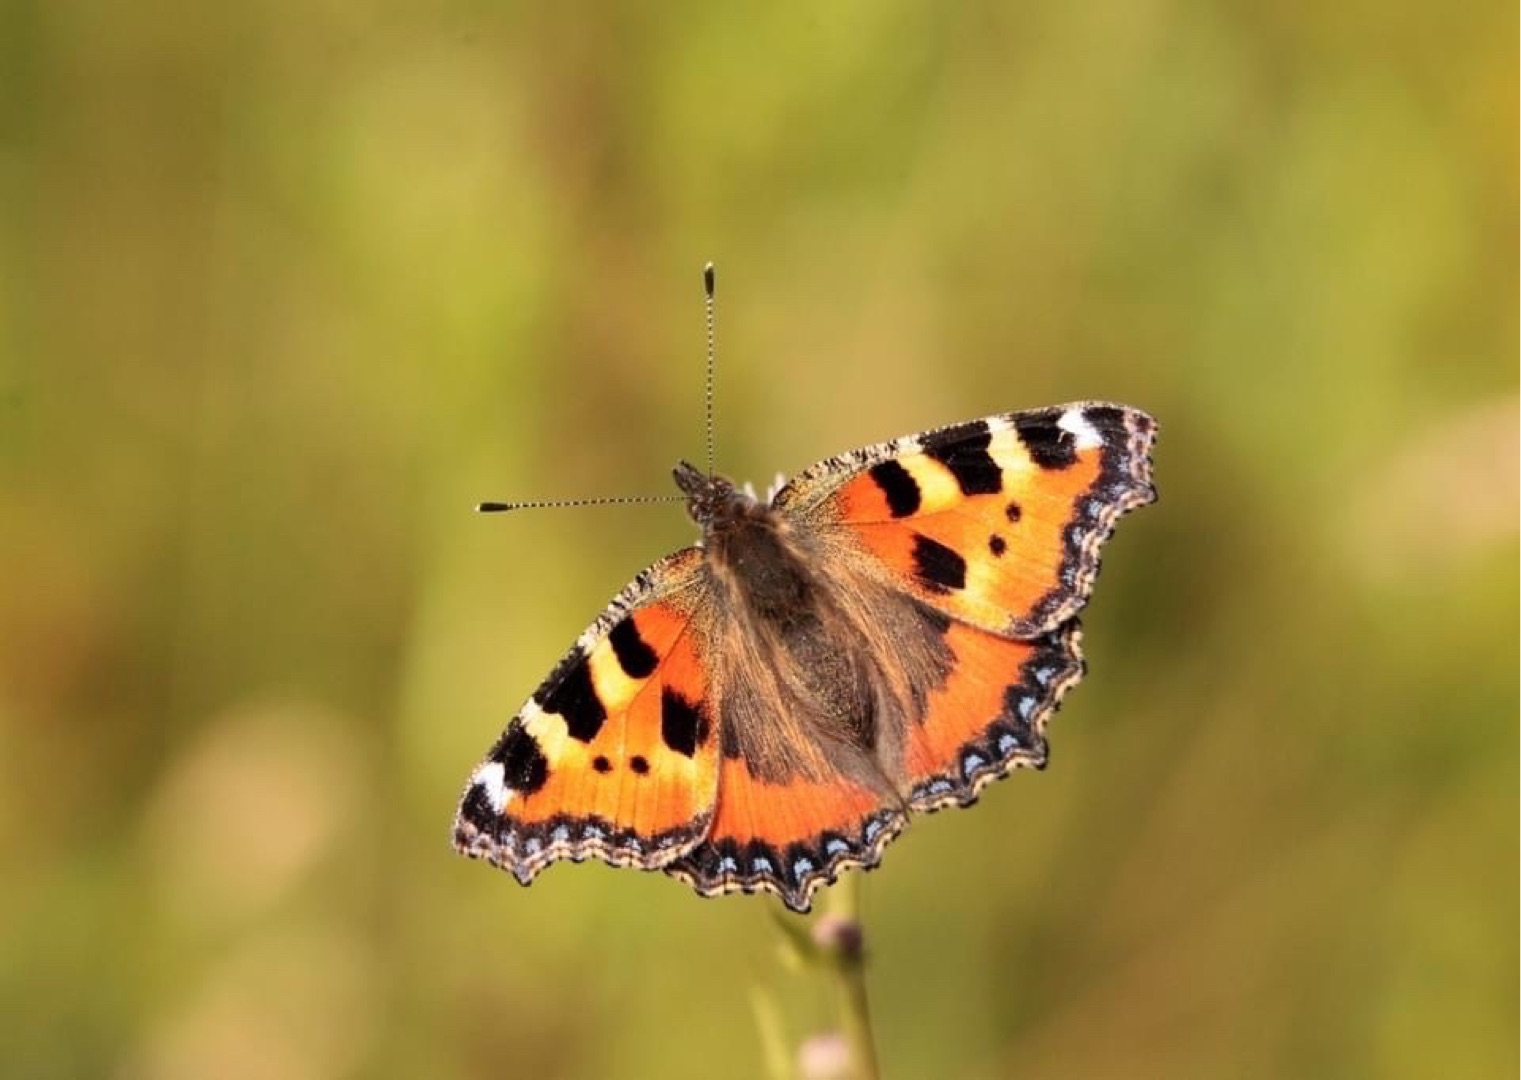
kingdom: Animalia
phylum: Arthropoda
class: Insecta
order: Lepidoptera
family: Nymphalidae
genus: Aglais
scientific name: Aglais urticae
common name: Nældens takvinge
